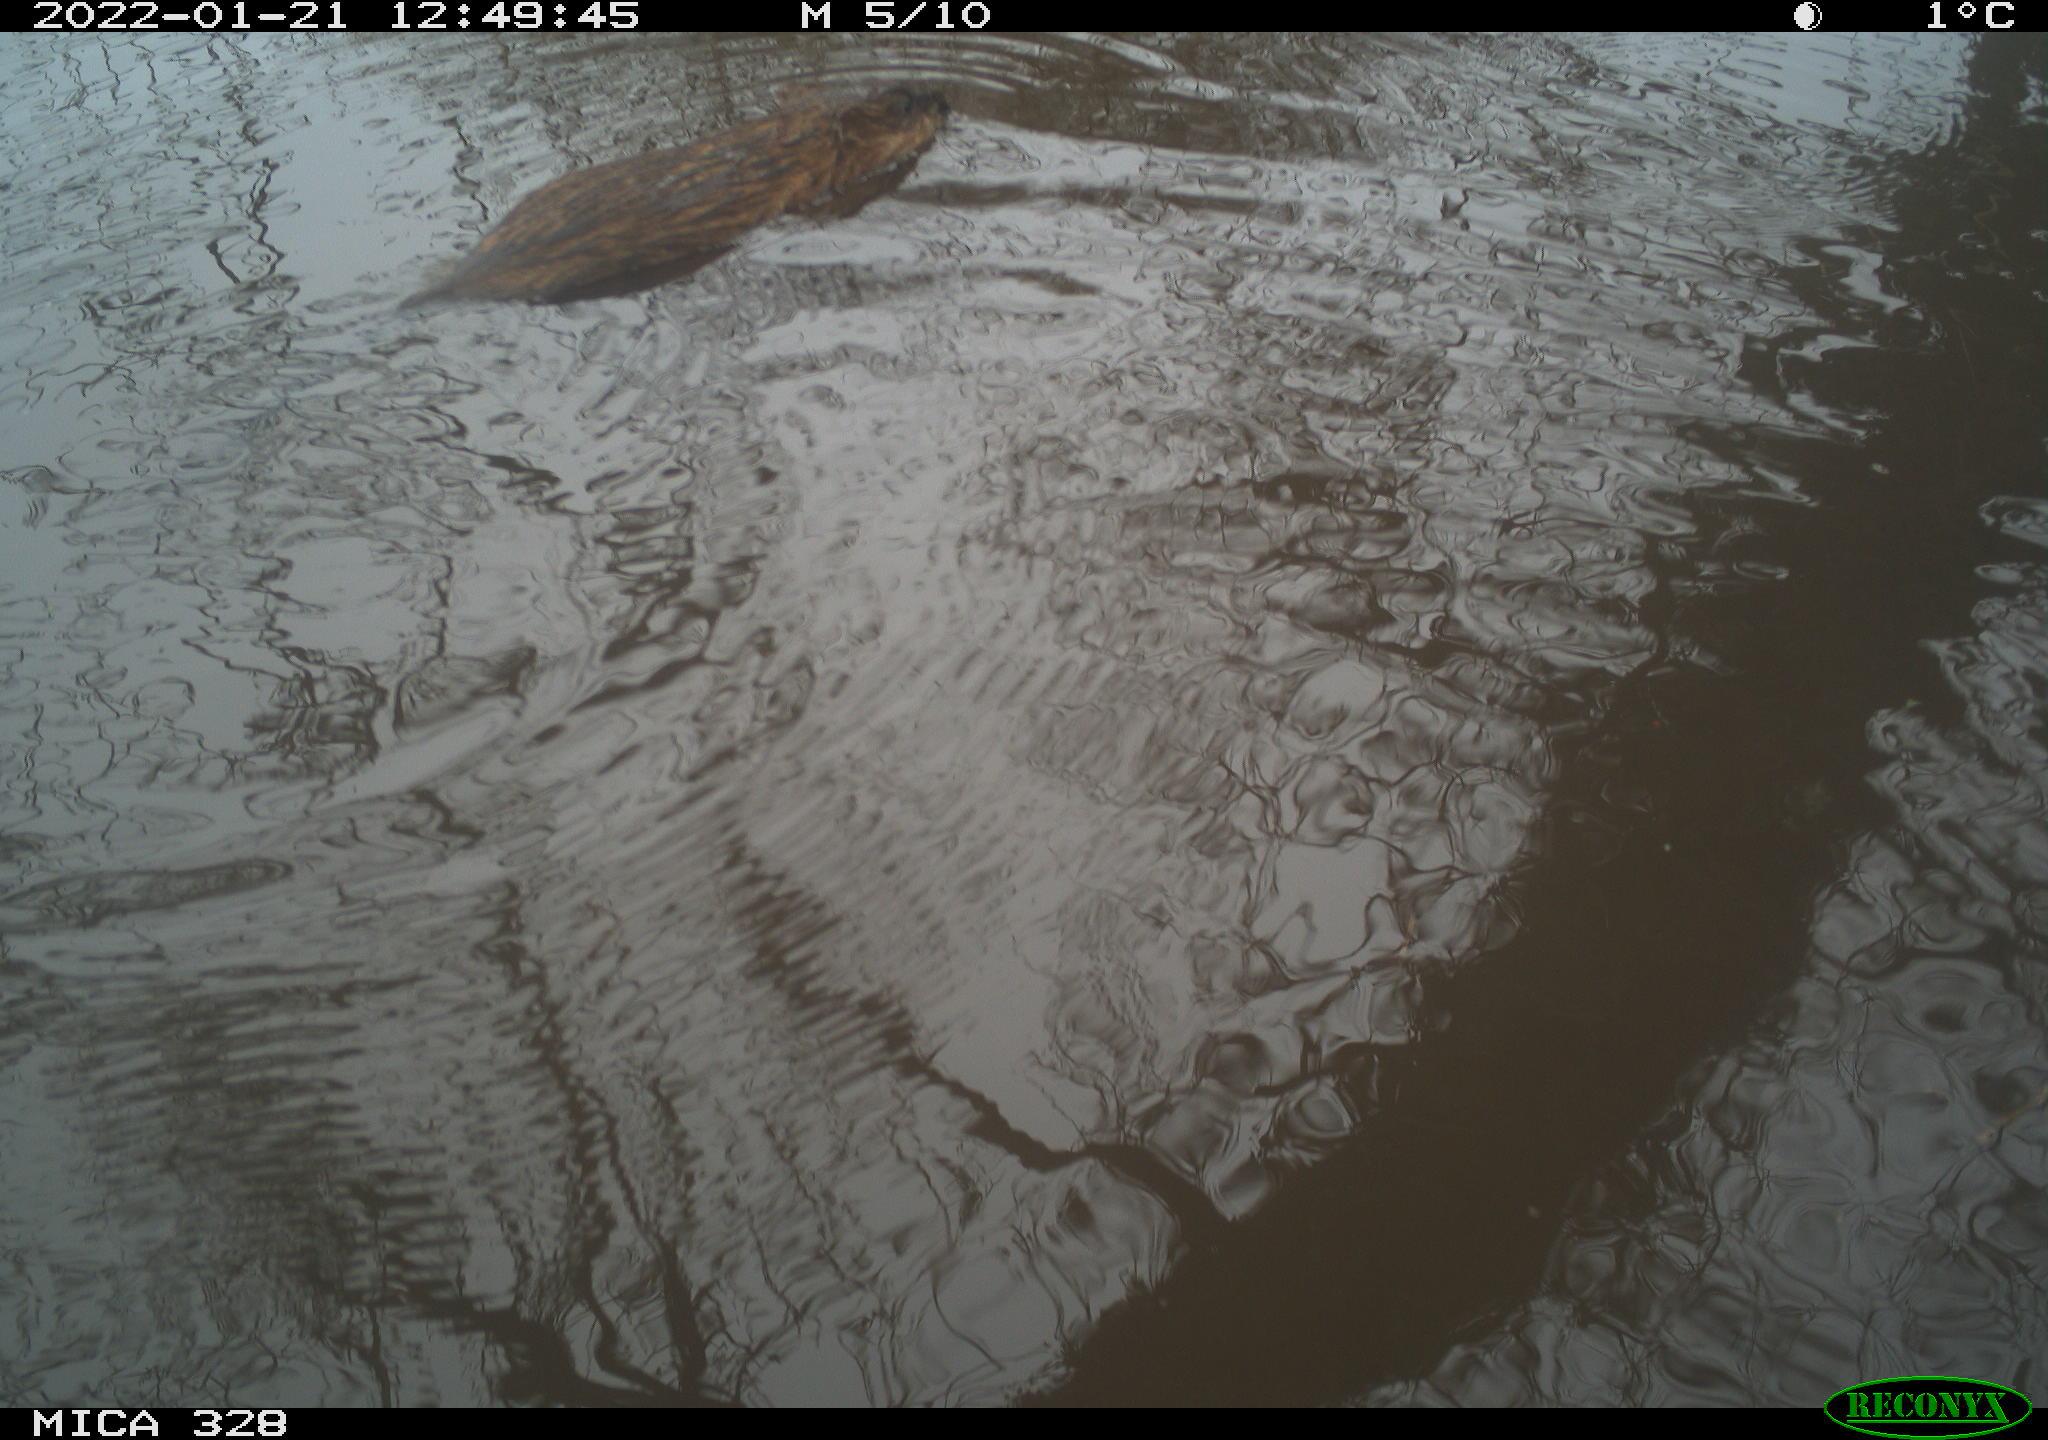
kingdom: Animalia
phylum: Chordata
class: Mammalia
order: Rodentia
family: Cricetidae
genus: Ondatra
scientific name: Ondatra zibethicus
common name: Muskrat
